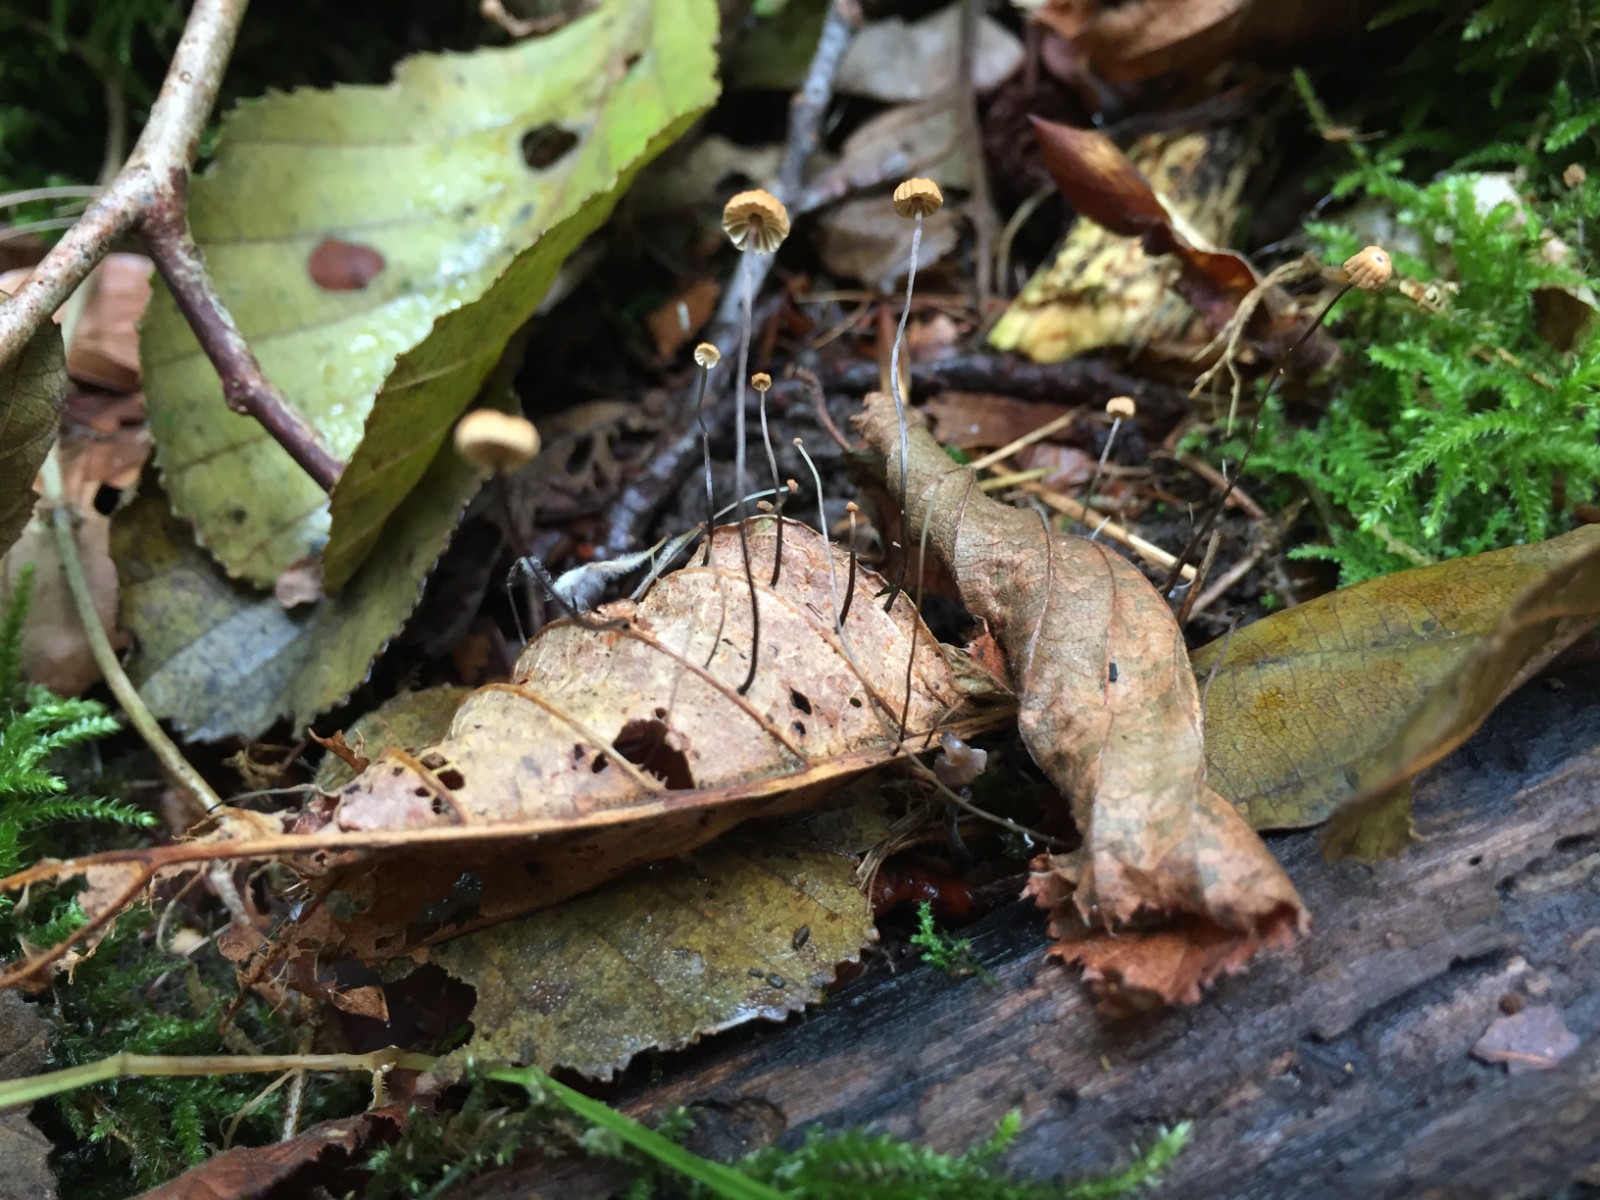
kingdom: Fungi
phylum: Basidiomycota
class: Agaricomycetes
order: Agaricales
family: Marasmiaceae
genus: Marasmius
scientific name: Marasmius bulliardii
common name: furet bruskhat
